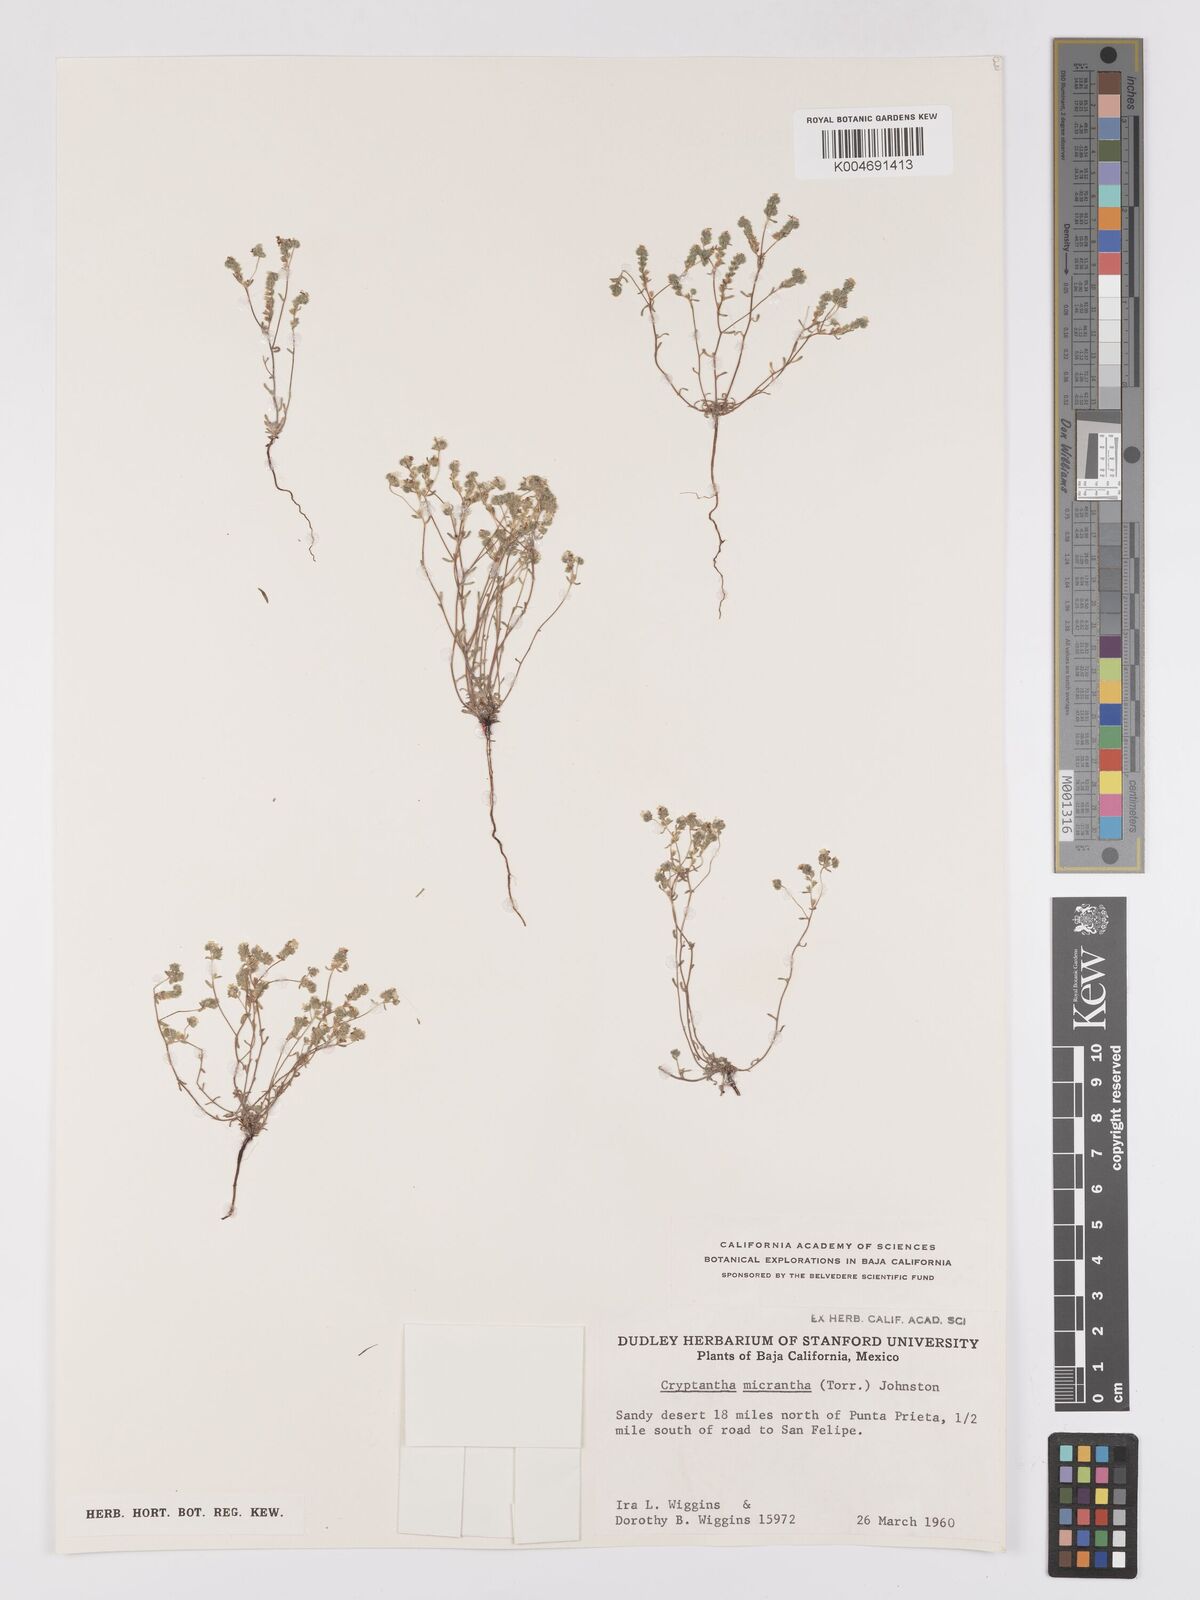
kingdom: Plantae
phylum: Tracheophyta
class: Magnoliopsida
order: Boraginales
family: Boraginaceae
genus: Cryptantha
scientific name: Cryptantha maritima
